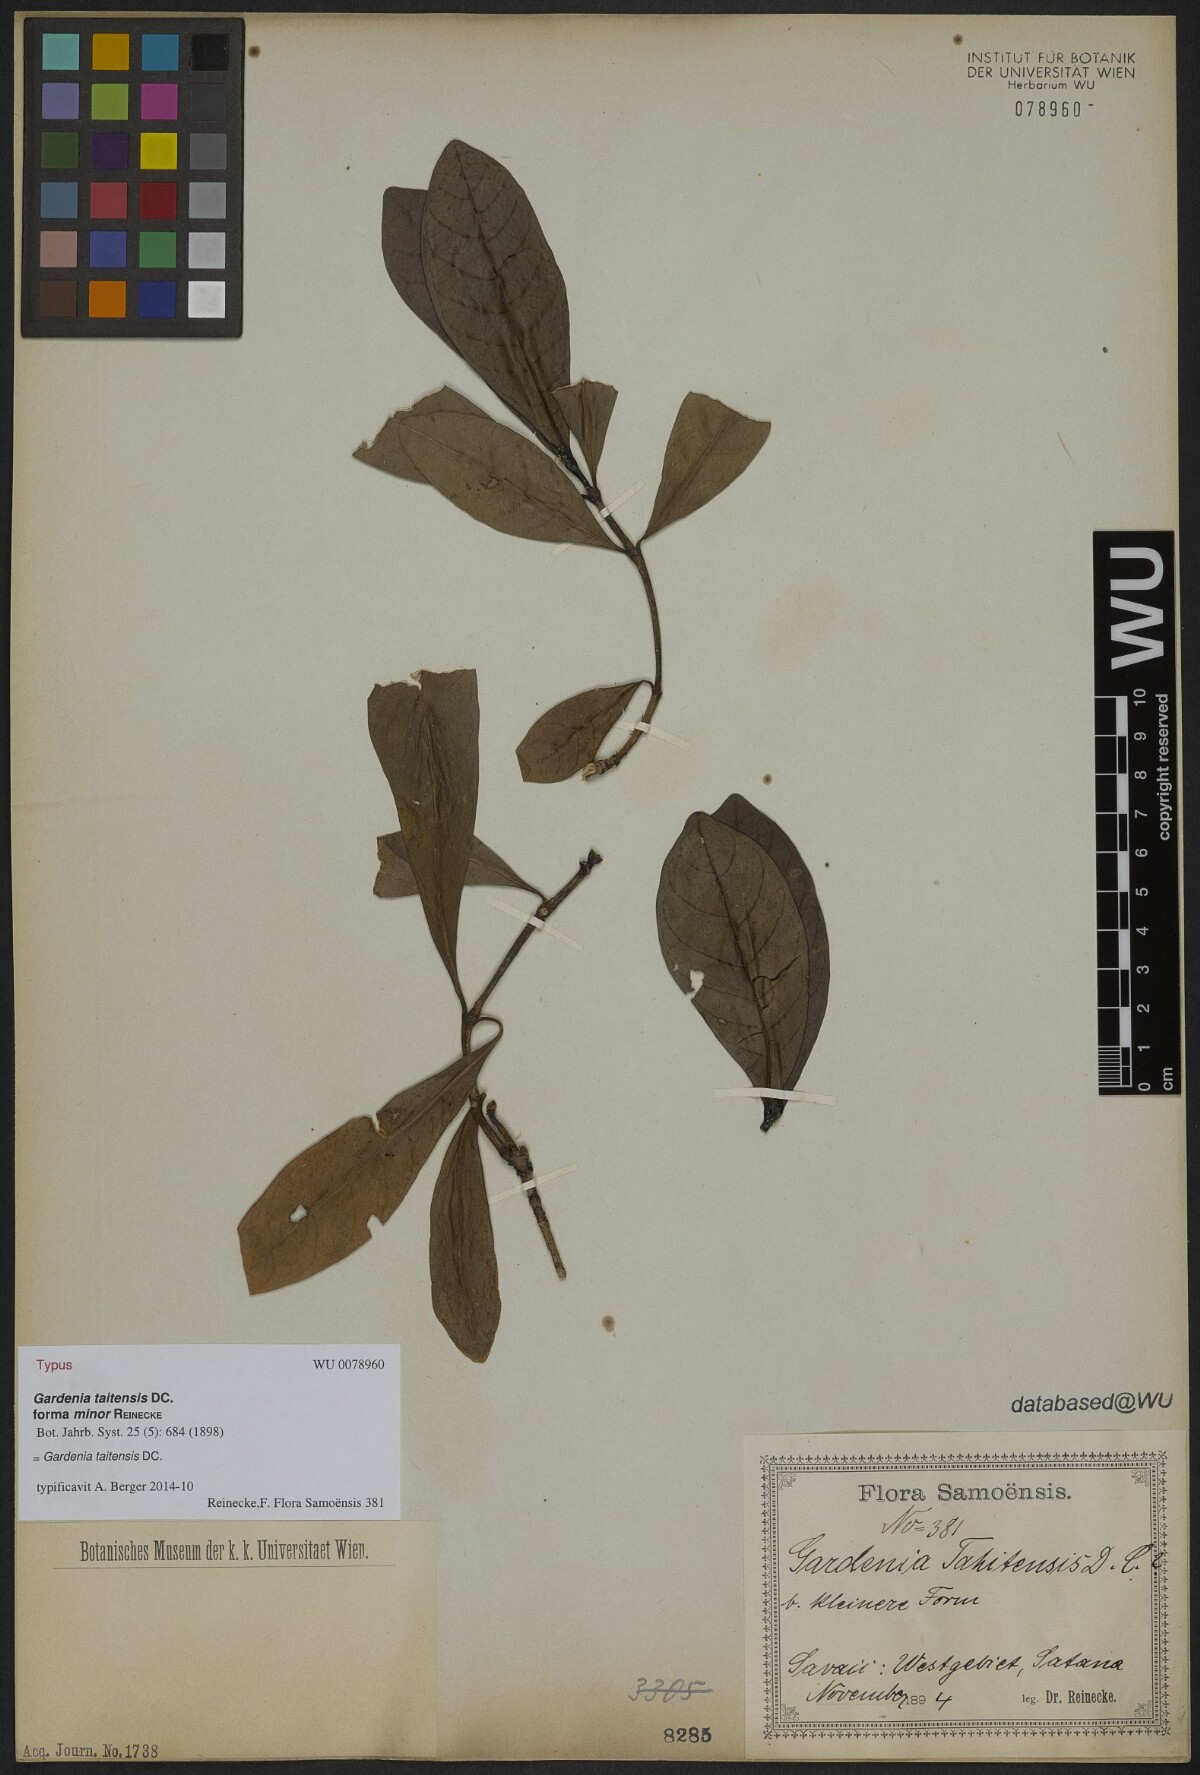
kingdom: Plantae
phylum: Tracheophyta
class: Magnoliopsida
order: Gentianales
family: Rubiaceae
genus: Gardenia
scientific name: Gardenia taitensis
